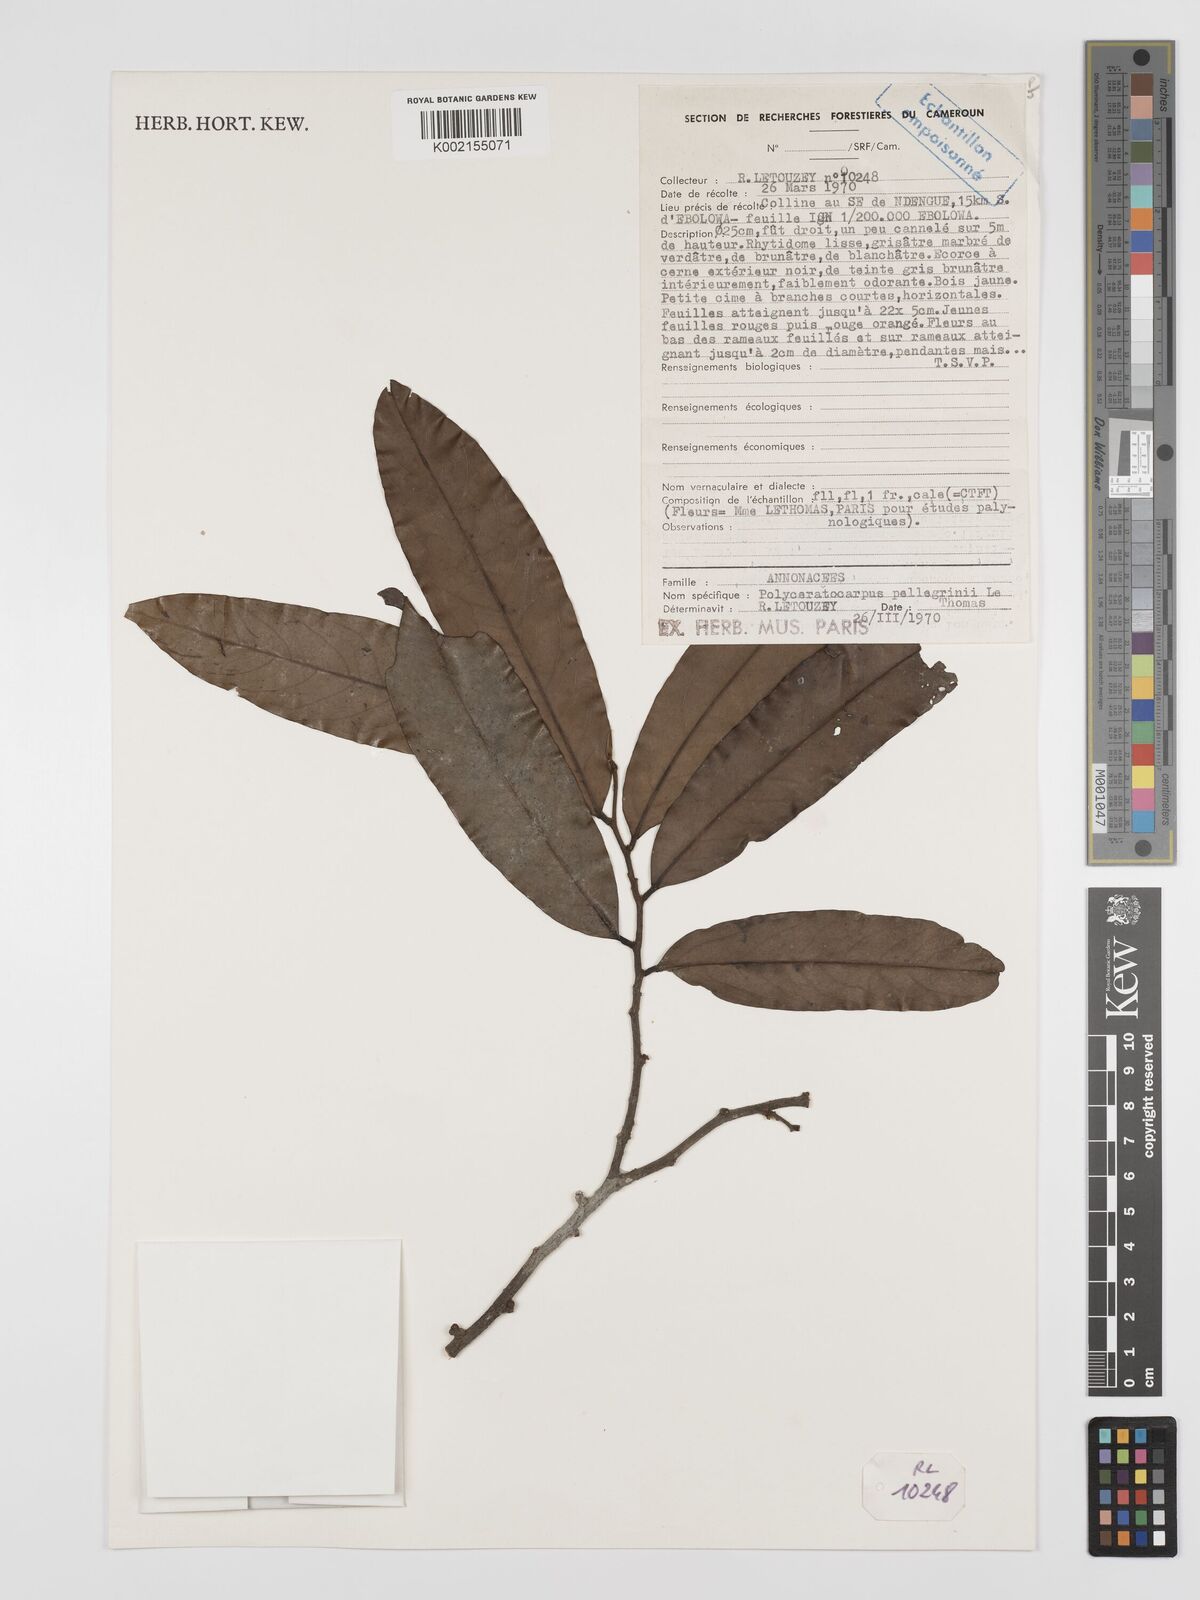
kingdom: Plantae
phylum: Tracheophyta
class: Magnoliopsida
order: Magnoliales
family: Annonaceae
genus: Polyceratocarpus
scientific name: Polyceratocarpus pellegrinii
